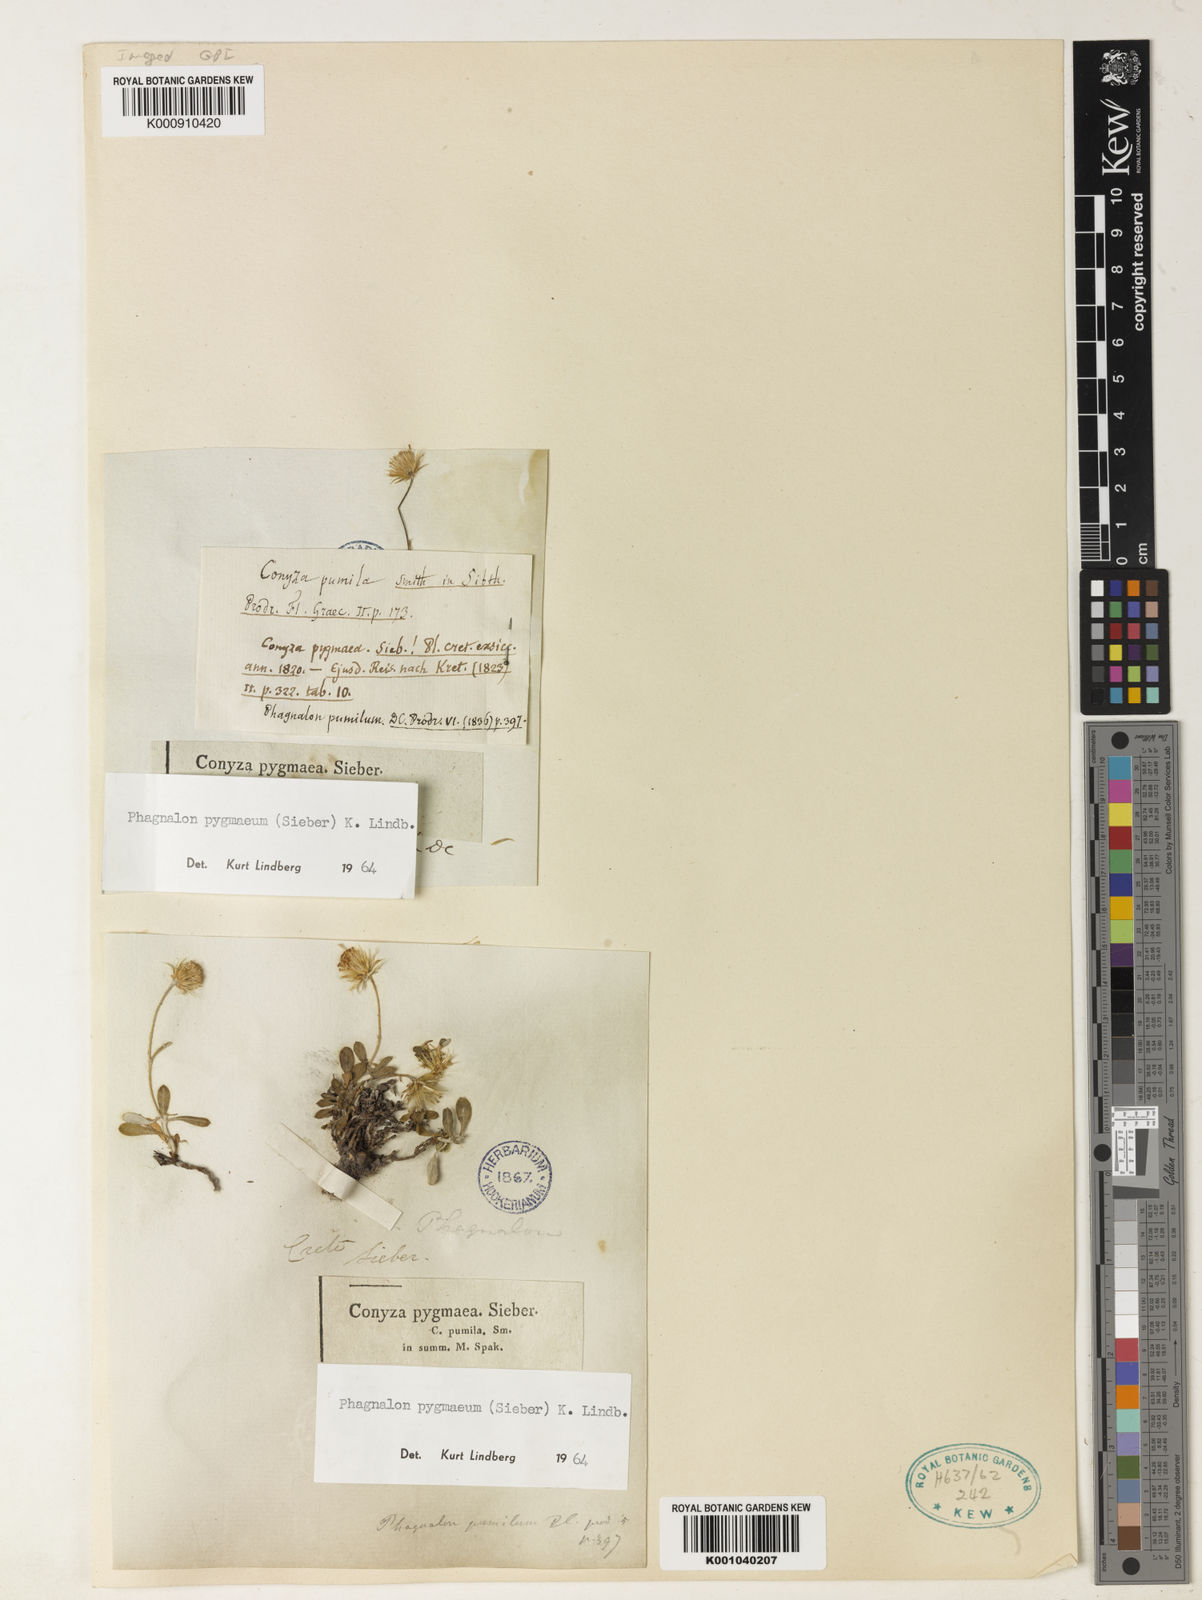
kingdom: Plantae
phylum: Tracheophyta
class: Magnoliopsida
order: Asterales
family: Asteraceae
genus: Phagnalon
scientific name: Phagnalon
